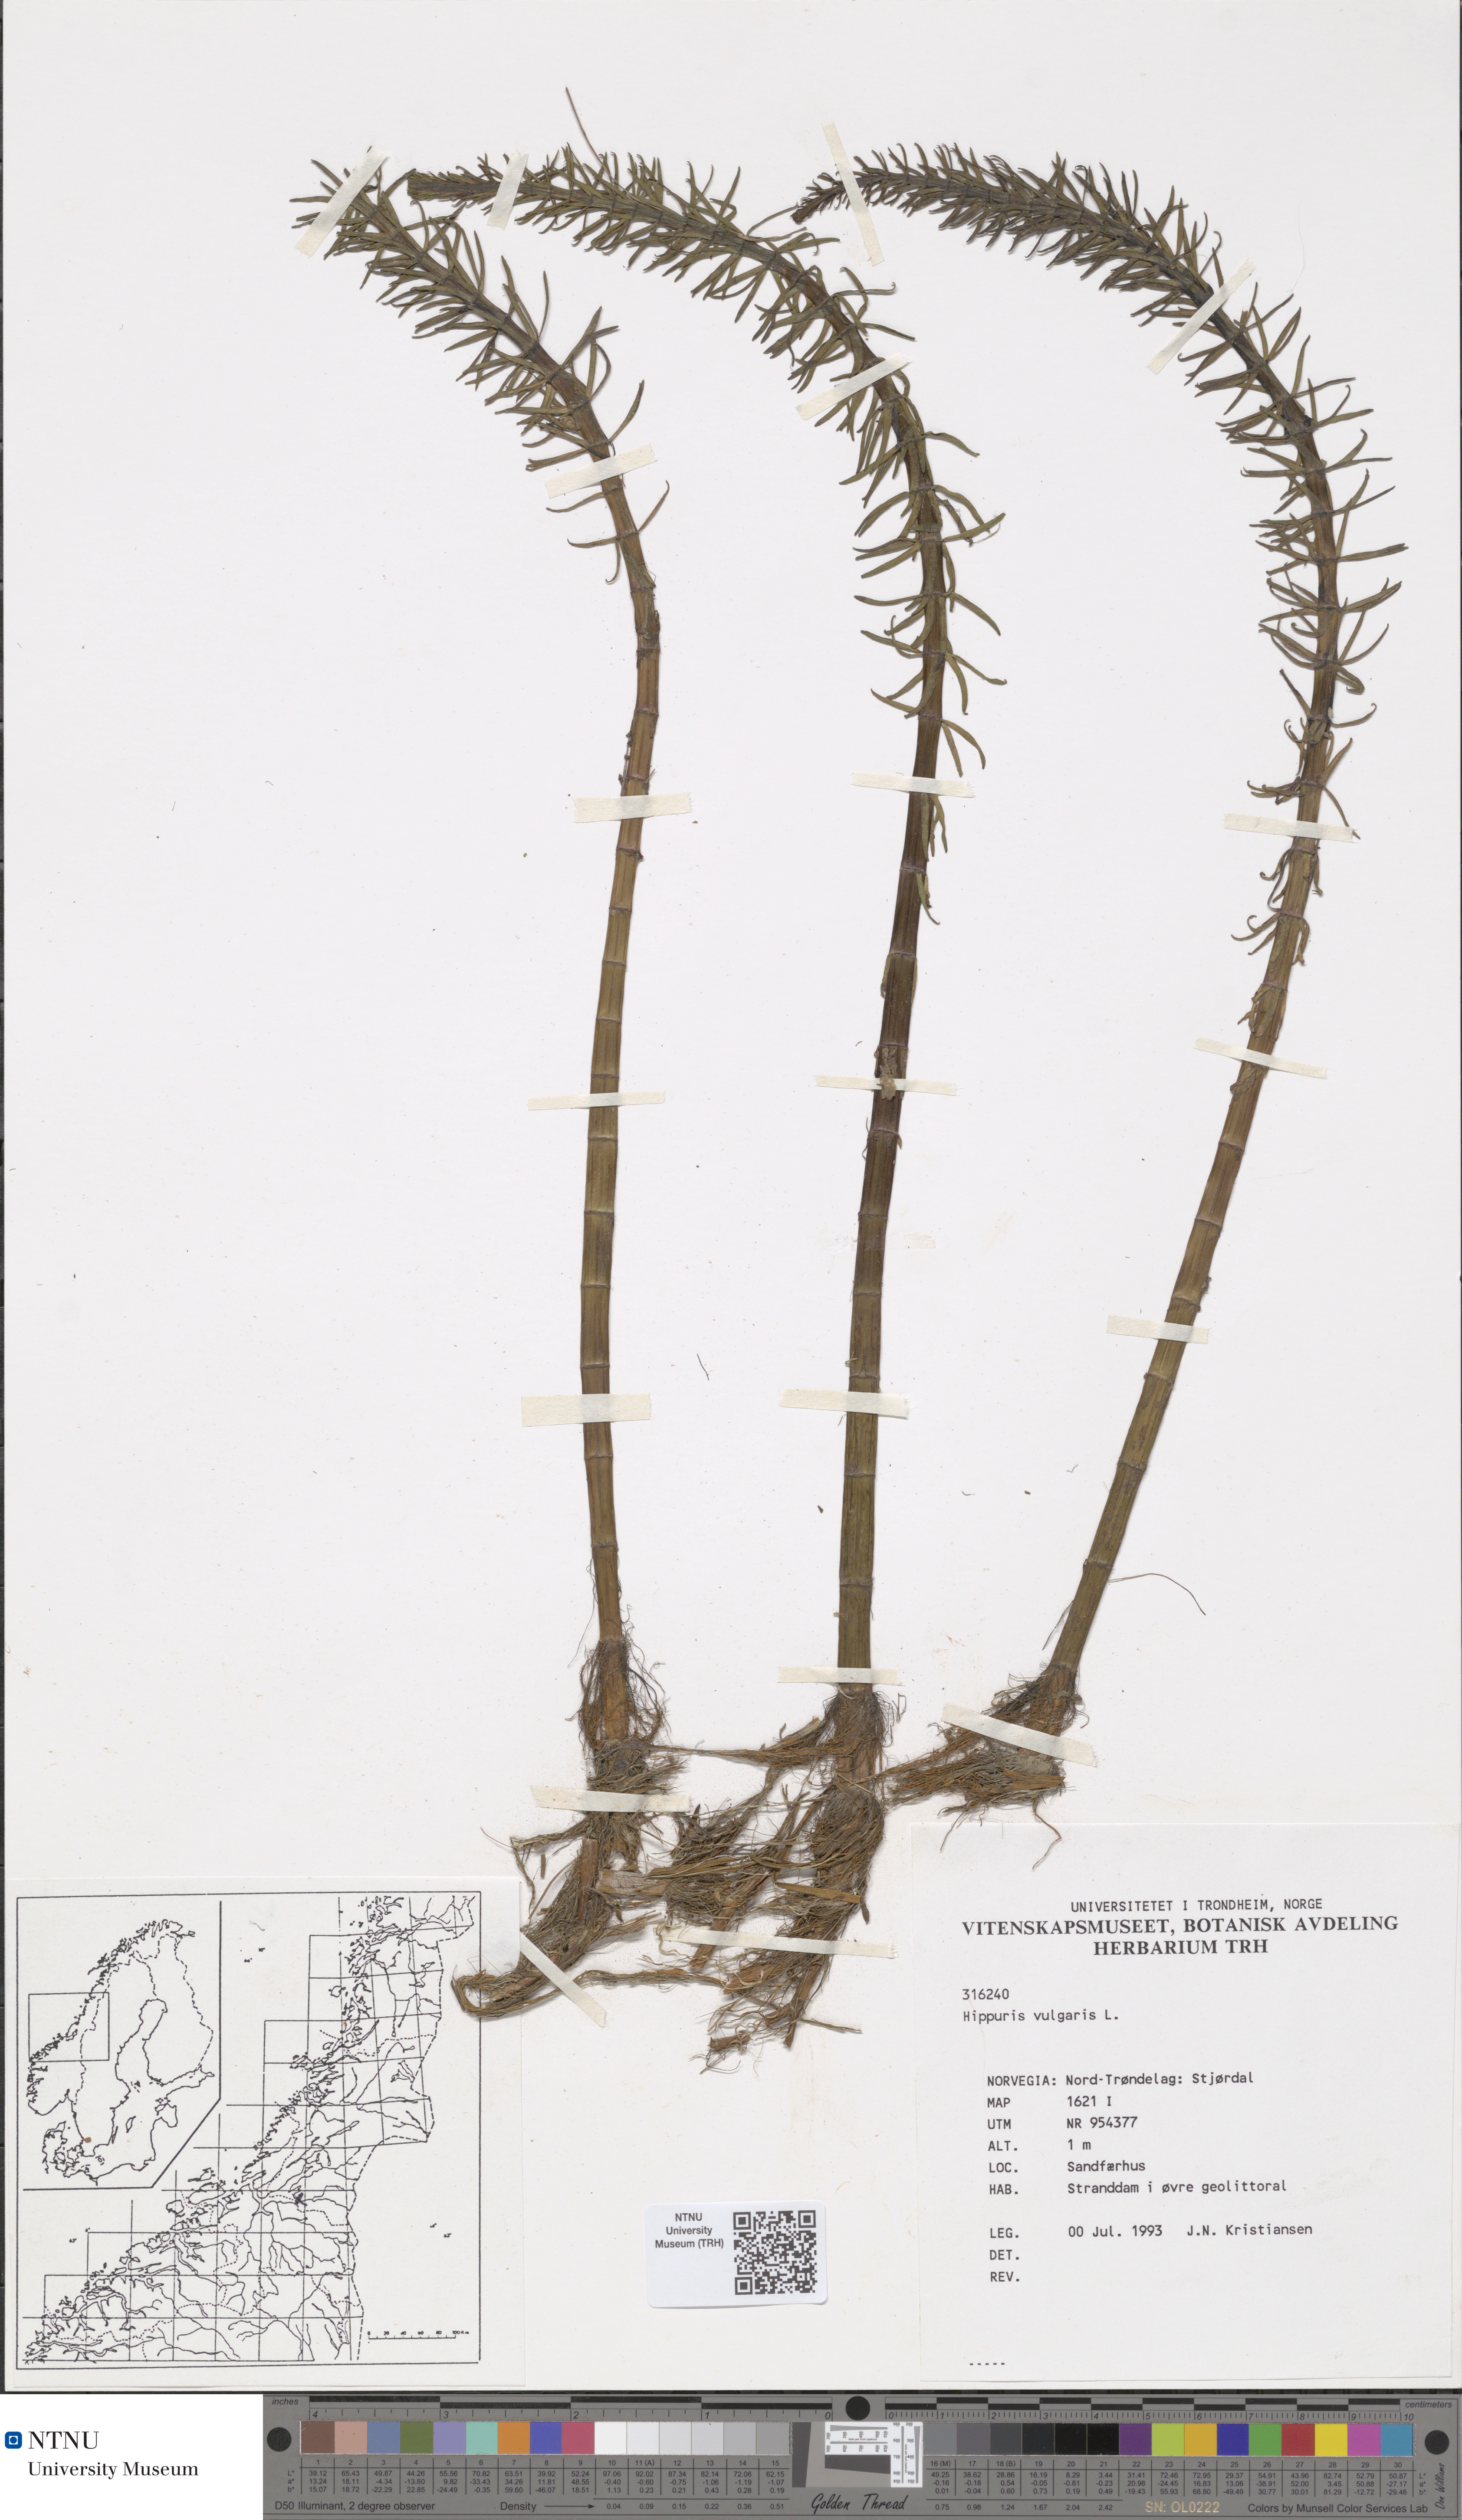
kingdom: Plantae
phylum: Tracheophyta
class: Magnoliopsida
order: Lamiales
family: Plantaginaceae
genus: Hippuris
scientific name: Hippuris vulgaris
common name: Mare's-tail
